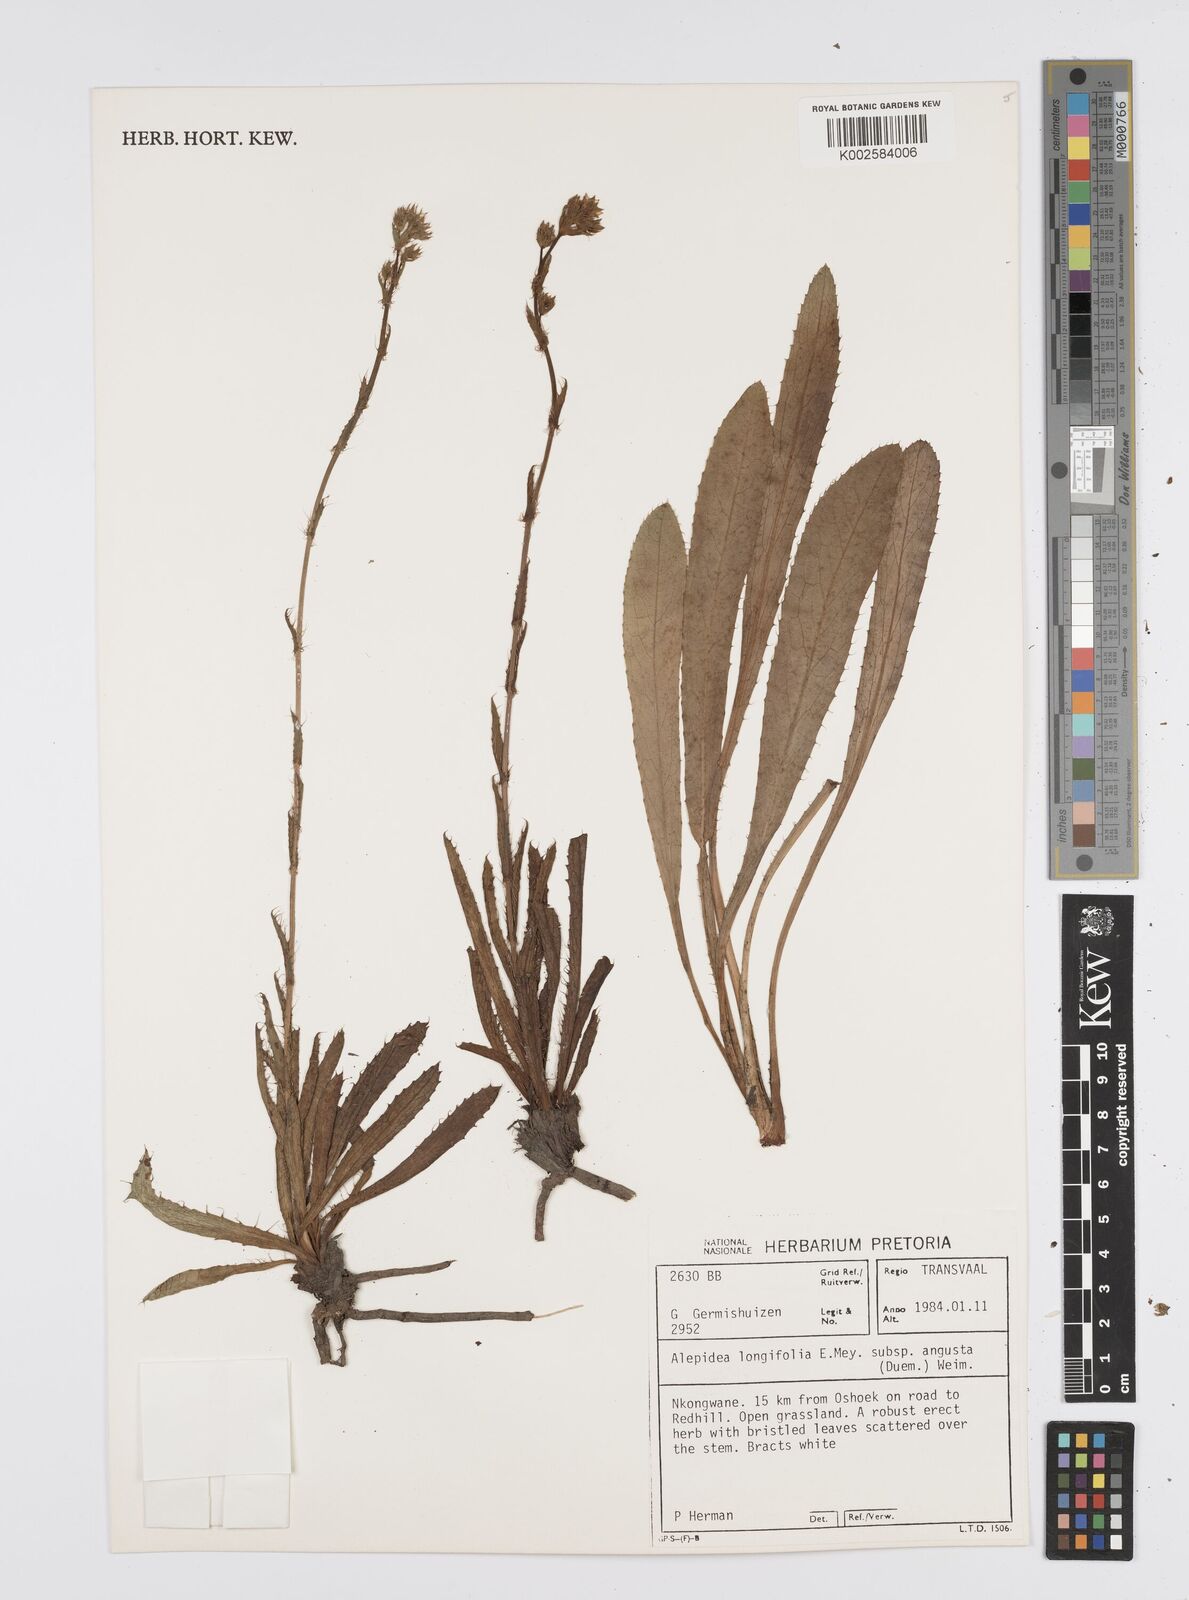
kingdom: Plantae
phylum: Tracheophyta
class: Magnoliopsida
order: Apiales
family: Apiaceae
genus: Alepidea
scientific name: Alepidea
